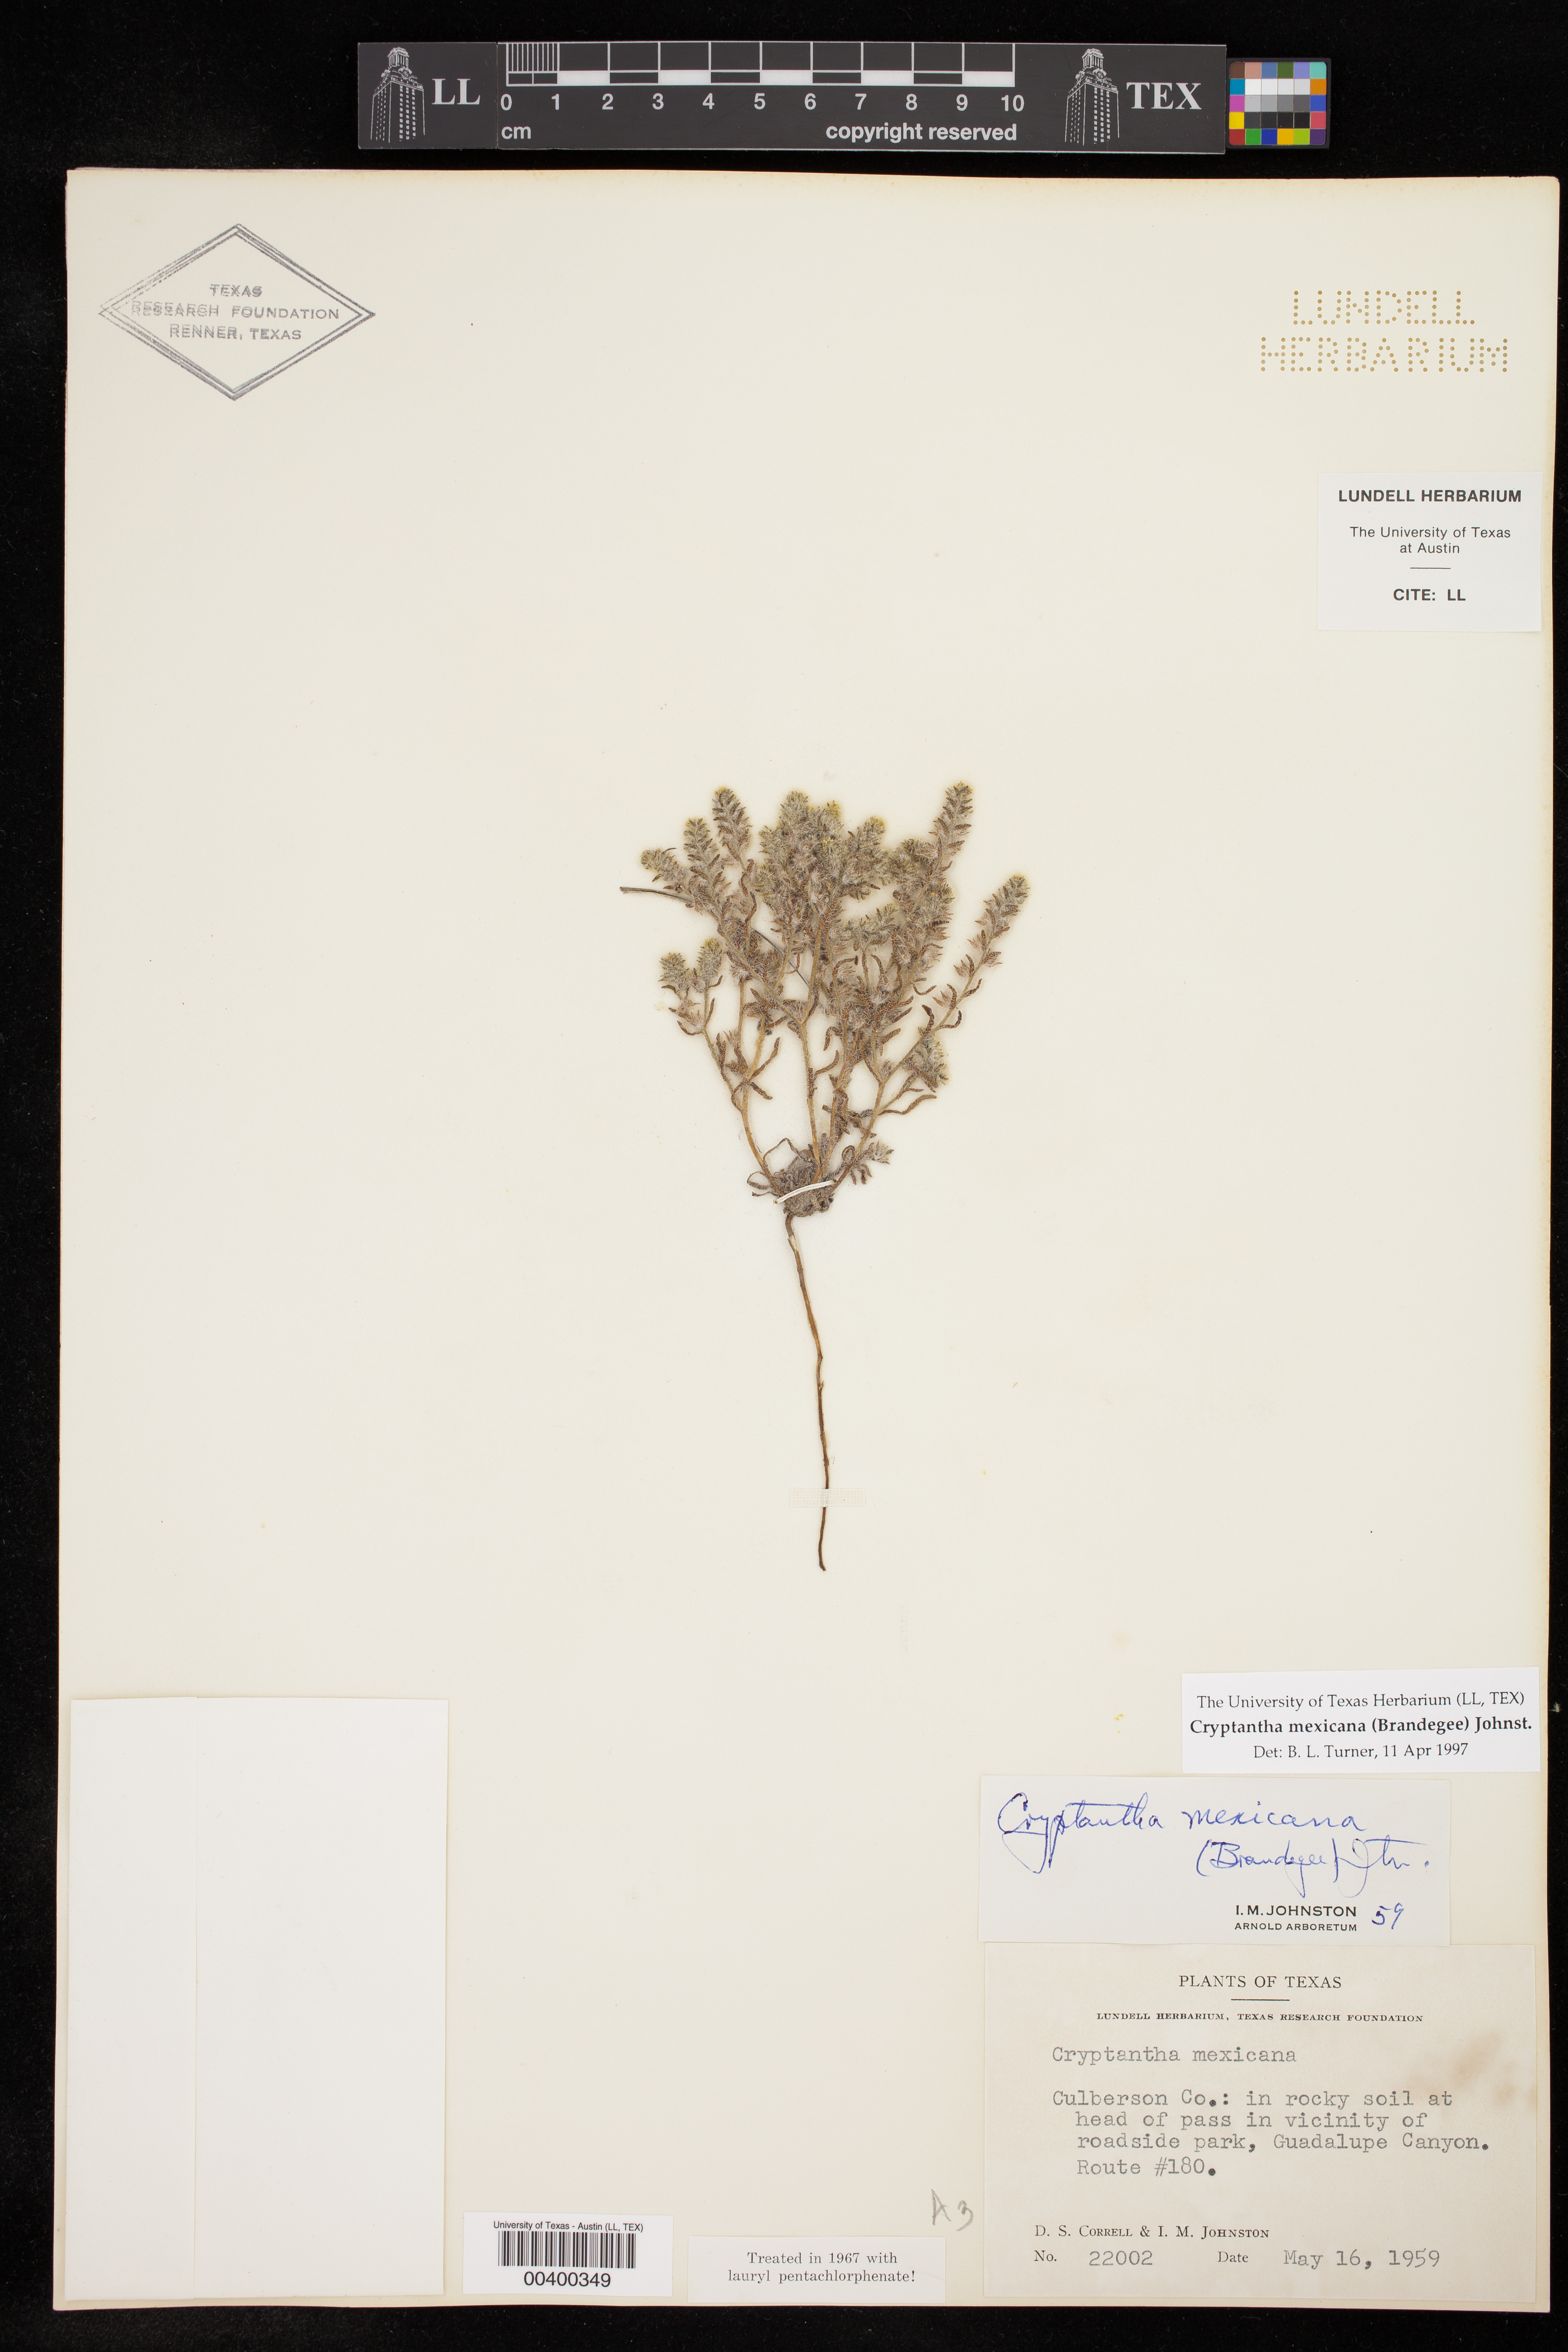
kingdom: Plantae
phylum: Tracheophyta
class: Magnoliopsida
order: Boraginales
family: Boraginaceae
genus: Johnstonella
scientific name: Johnstonella mexicana
